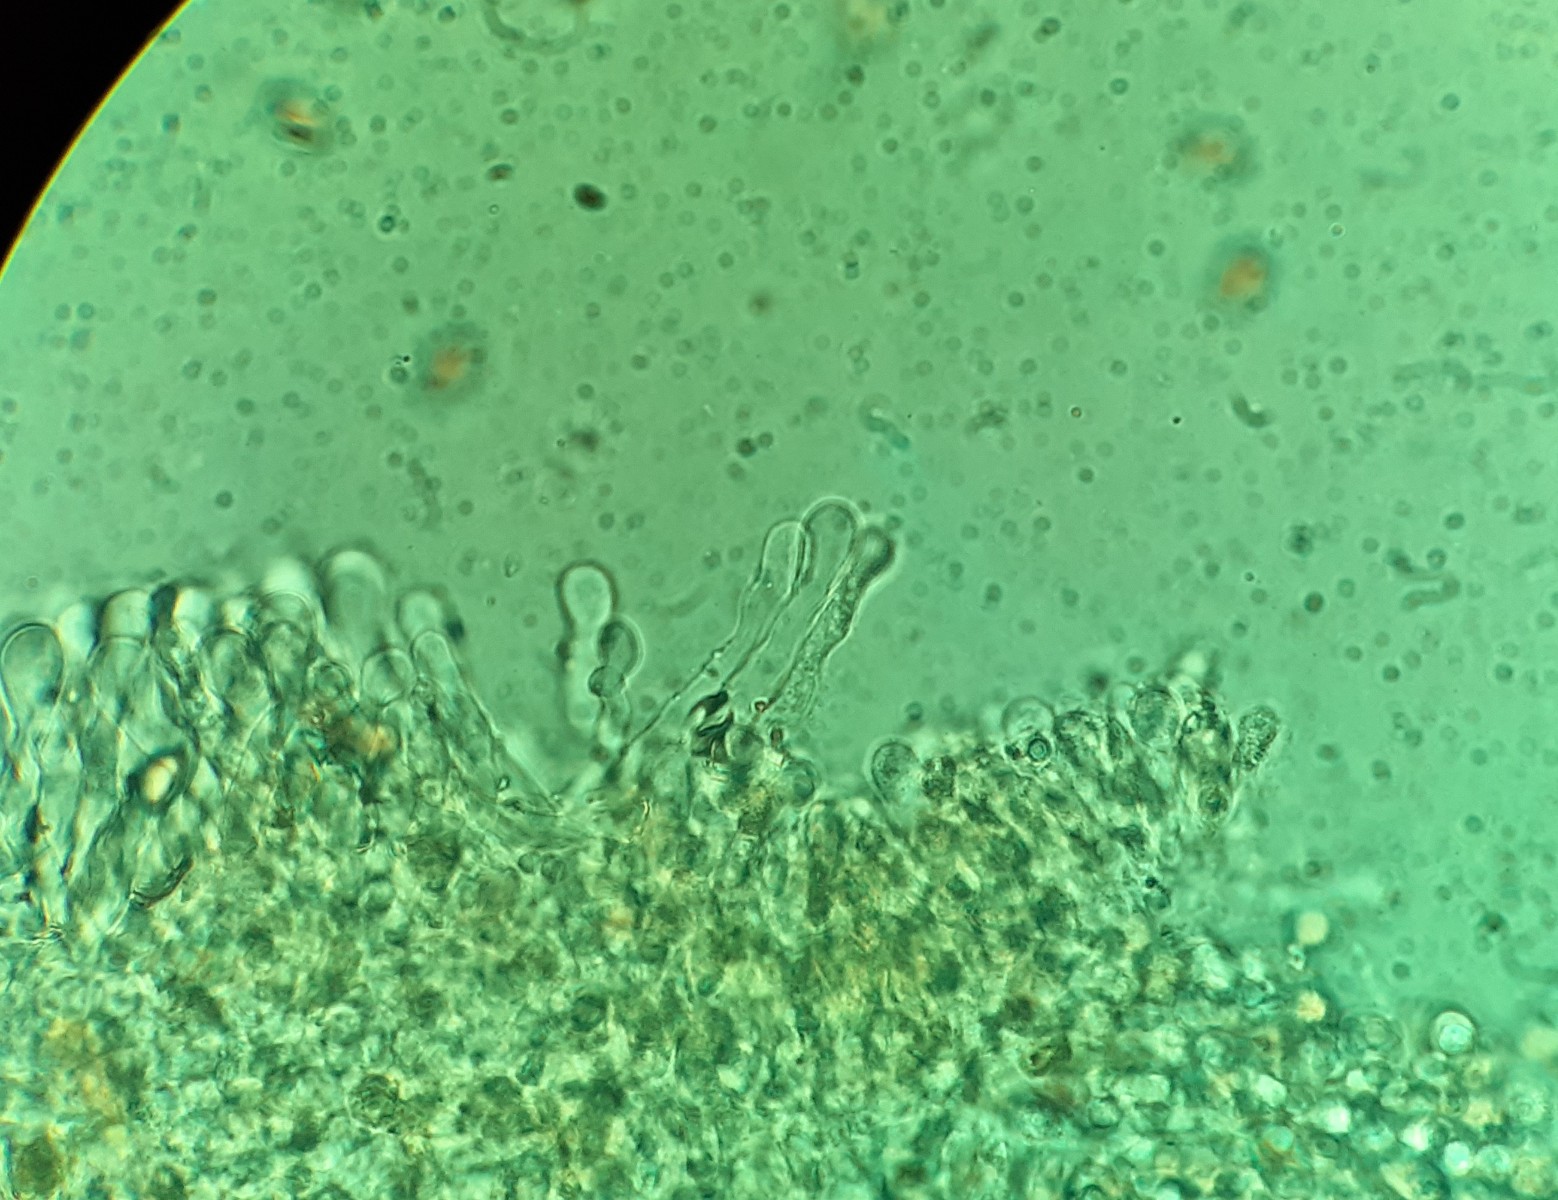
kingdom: Fungi
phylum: Basidiomycota
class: Agaricomycetes
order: Agaricales
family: Crepidotaceae
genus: Simocybe
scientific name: Simocybe sumptuosa
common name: stor skyggehat
